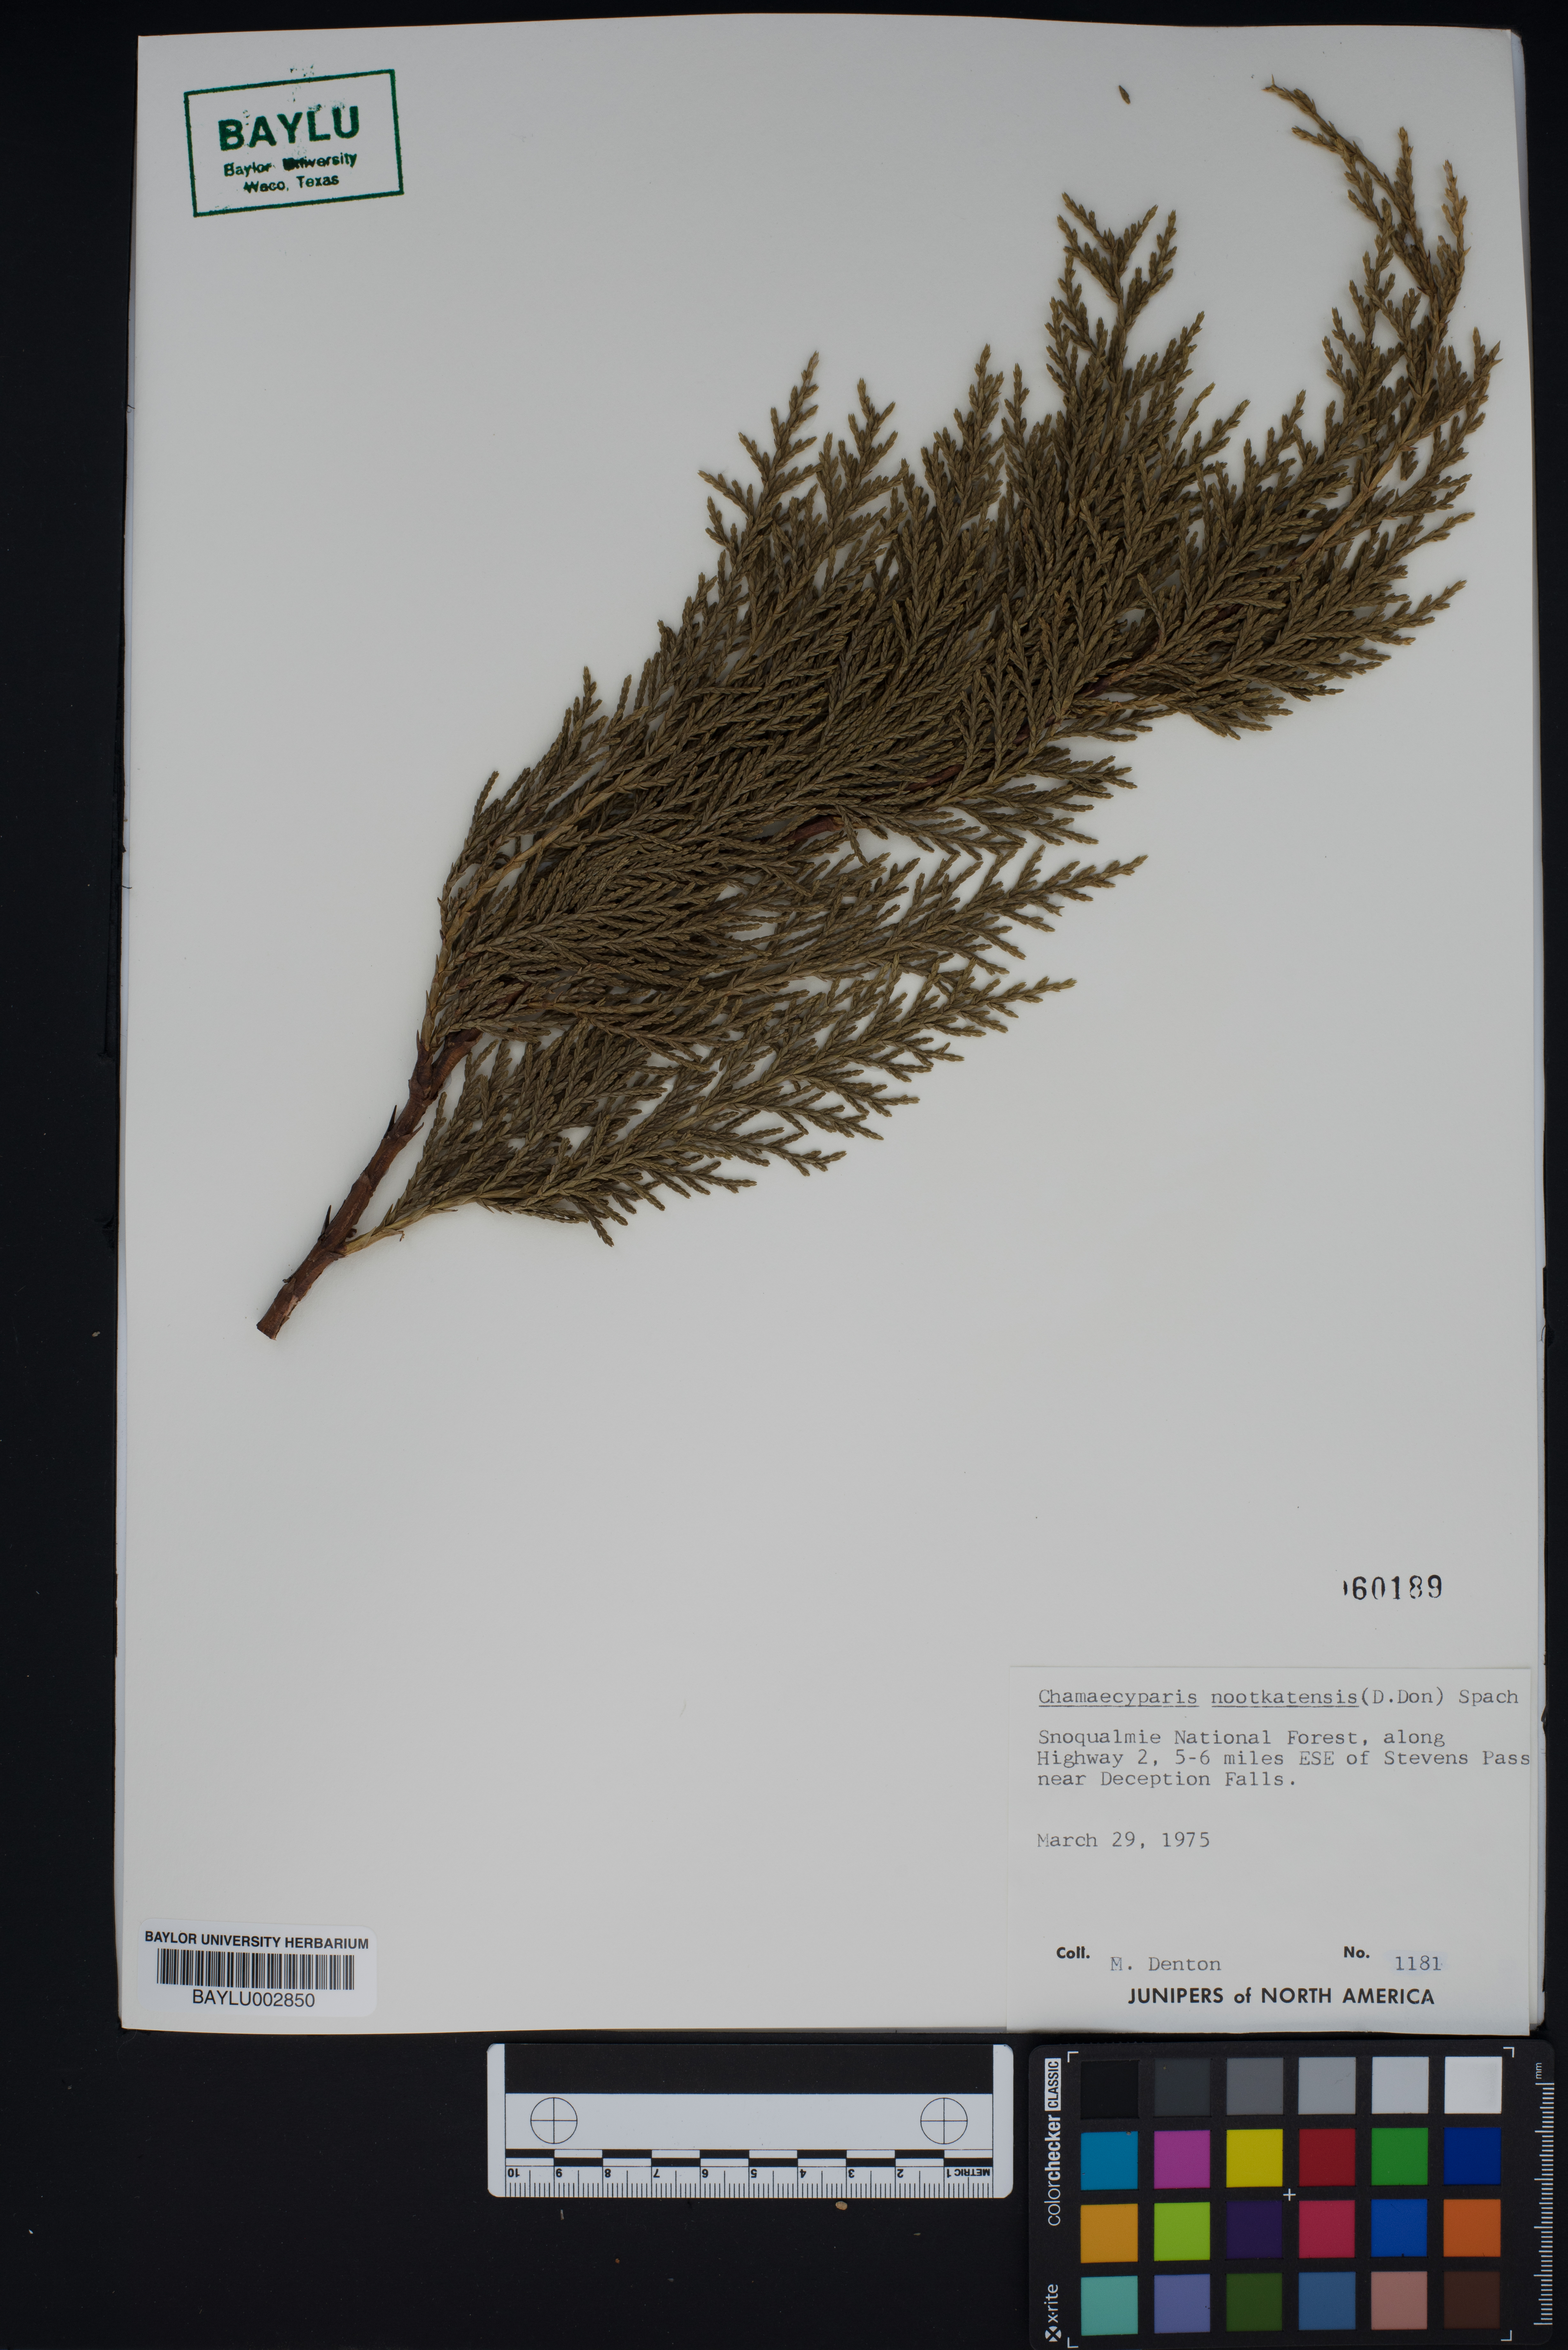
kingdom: Plantae
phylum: Tracheophyta
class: Pinopsida
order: Pinales
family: Cupressaceae
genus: Xanthocyparis
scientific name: Xanthocyparis nootkatensis
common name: Nootka cypress
